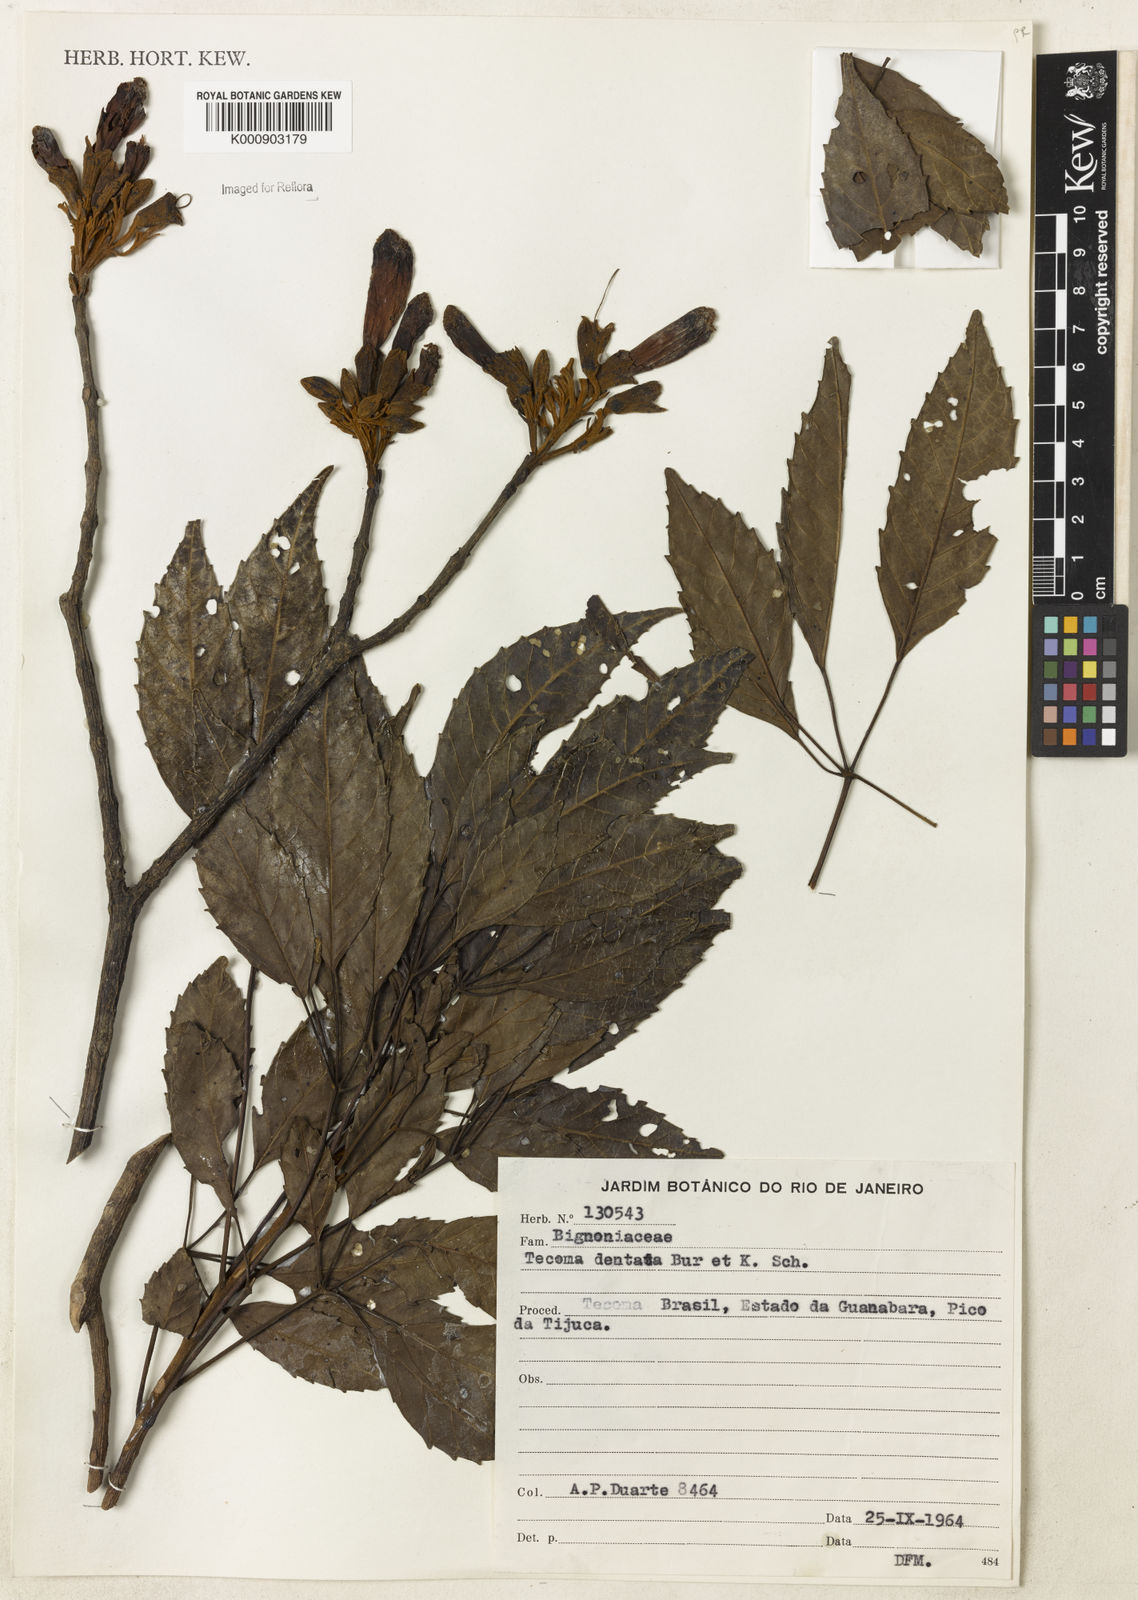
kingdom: Plantae
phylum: Tracheophyta
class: Magnoliopsida
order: Lamiales
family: Bignoniaceae
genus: Handroanthus
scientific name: Handroanthus bureavii
